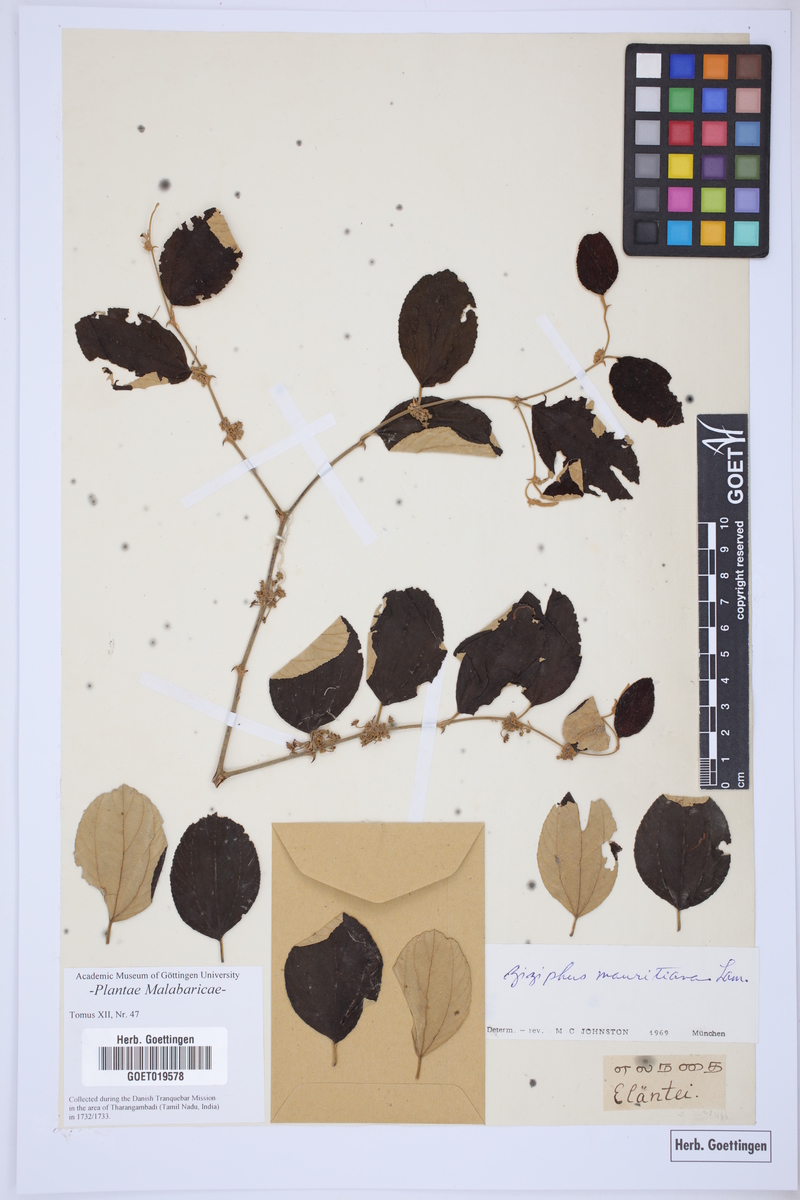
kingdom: Plantae
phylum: Tracheophyta
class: Magnoliopsida
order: Rosales
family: Rhamnaceae
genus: Ziziphus
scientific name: Ziziphus mauritiana
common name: Indian jujube
